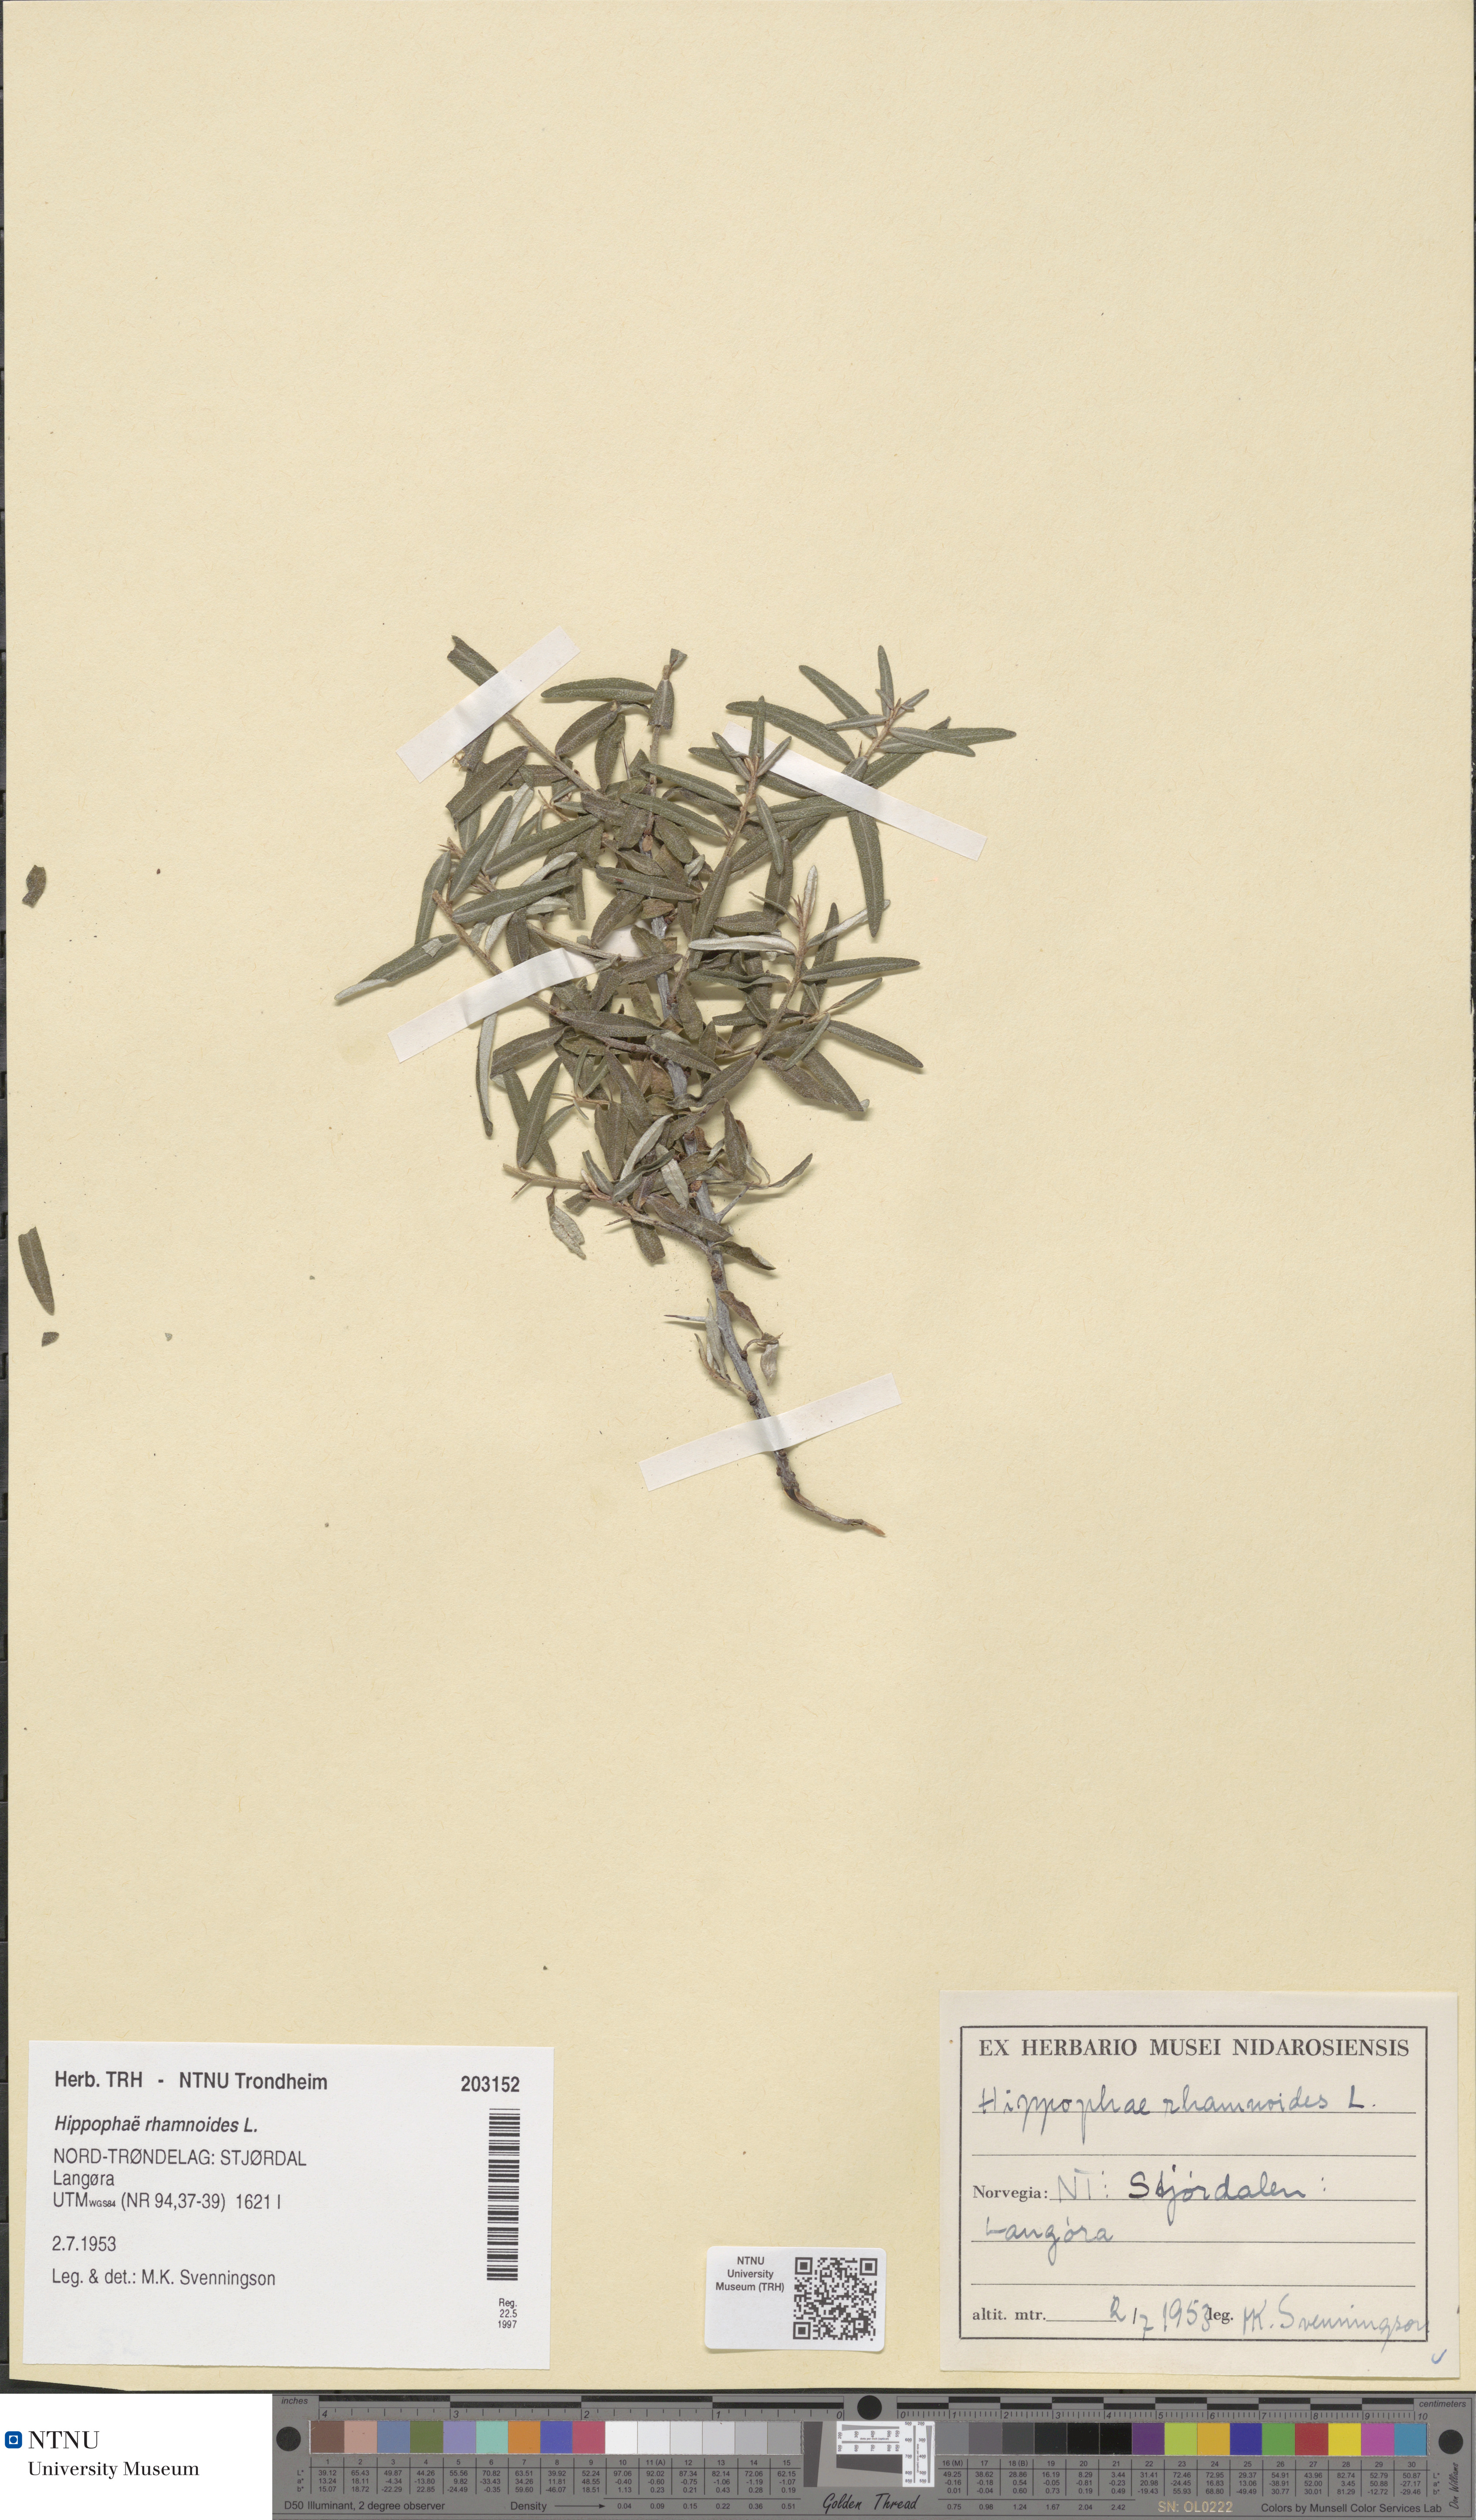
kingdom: Plantae
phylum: Tracheophyta
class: Magnoliopsida
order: Rosales
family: Elaeagnaceae
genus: Hippophae
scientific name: Hippophae rhamnoides
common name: Sea-buckthorn
